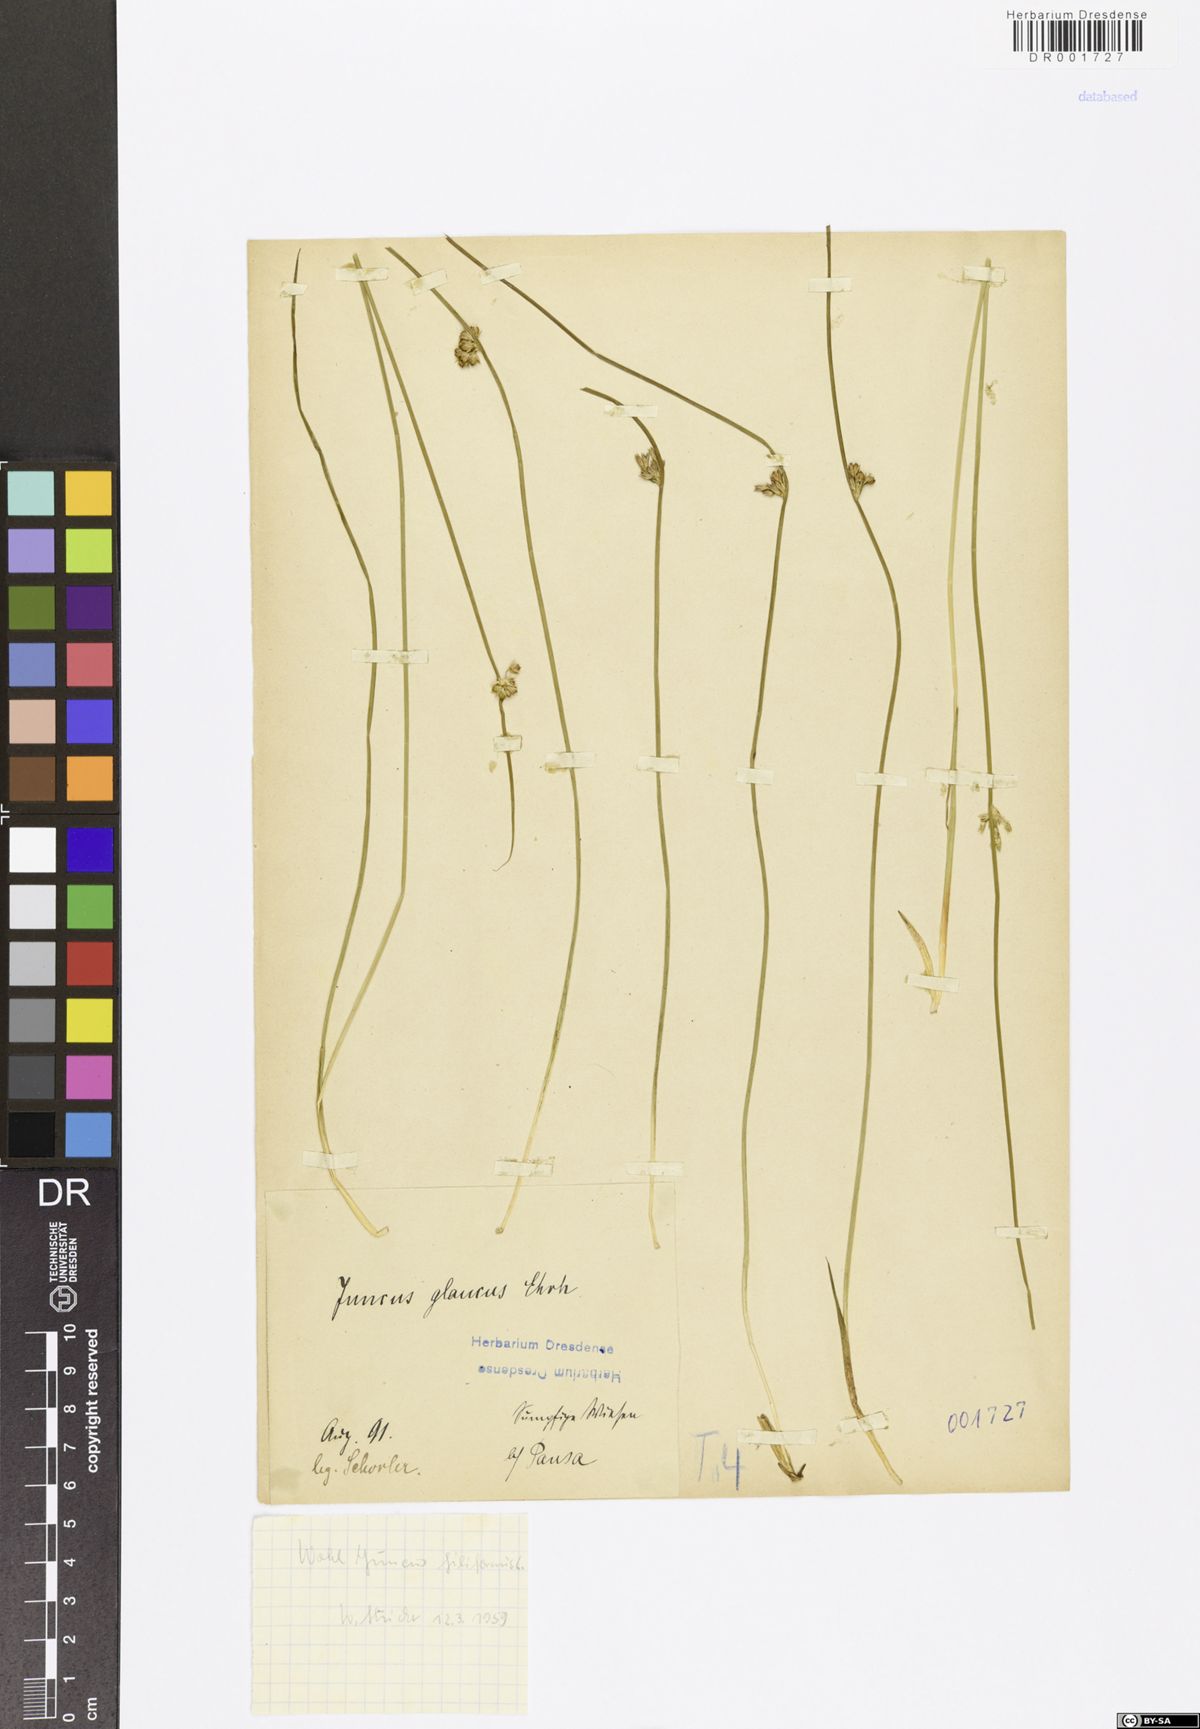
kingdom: Plantae
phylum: Tracheophyta
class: Liliopsida
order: Poales
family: Juncaceae
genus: Juncus
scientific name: Juncus inflexus
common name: Hard rush
